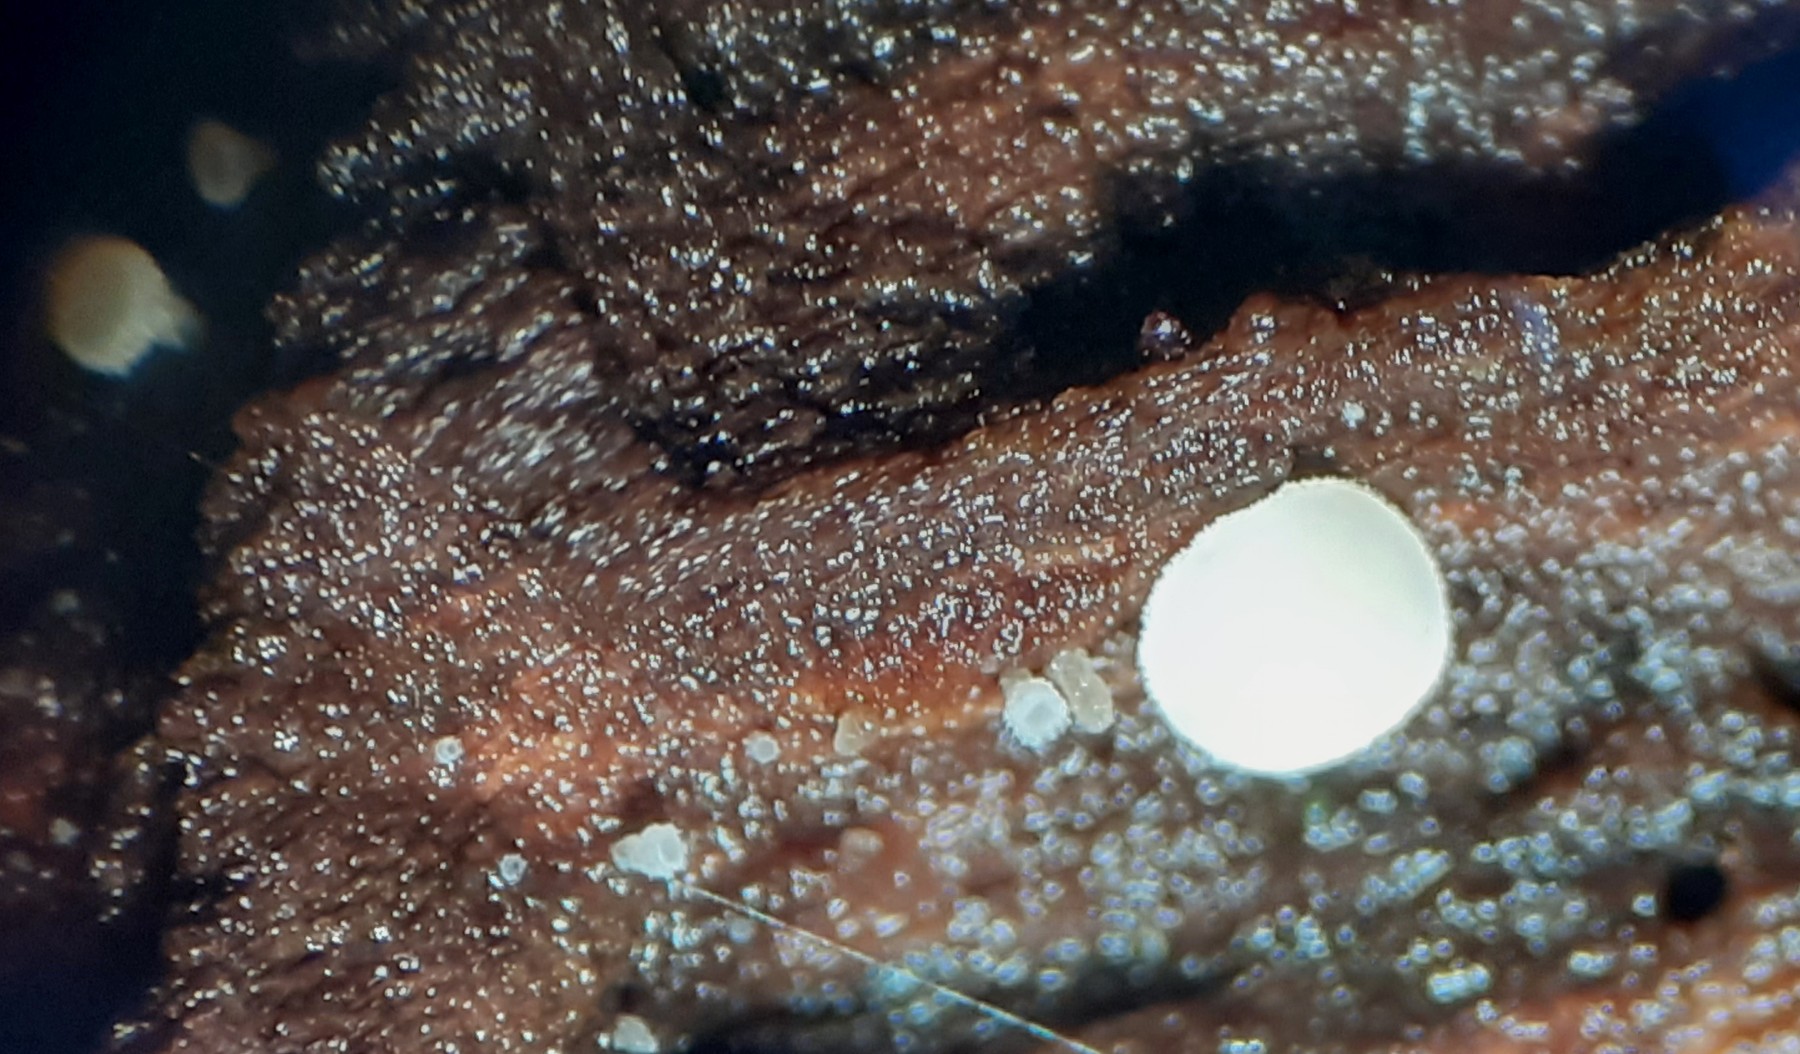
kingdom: Fungi
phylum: Ascomycota
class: Leotiomycetes
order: Helotiales
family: Lachnaceae
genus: Lachnum
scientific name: Lachnum
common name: frynseskive
